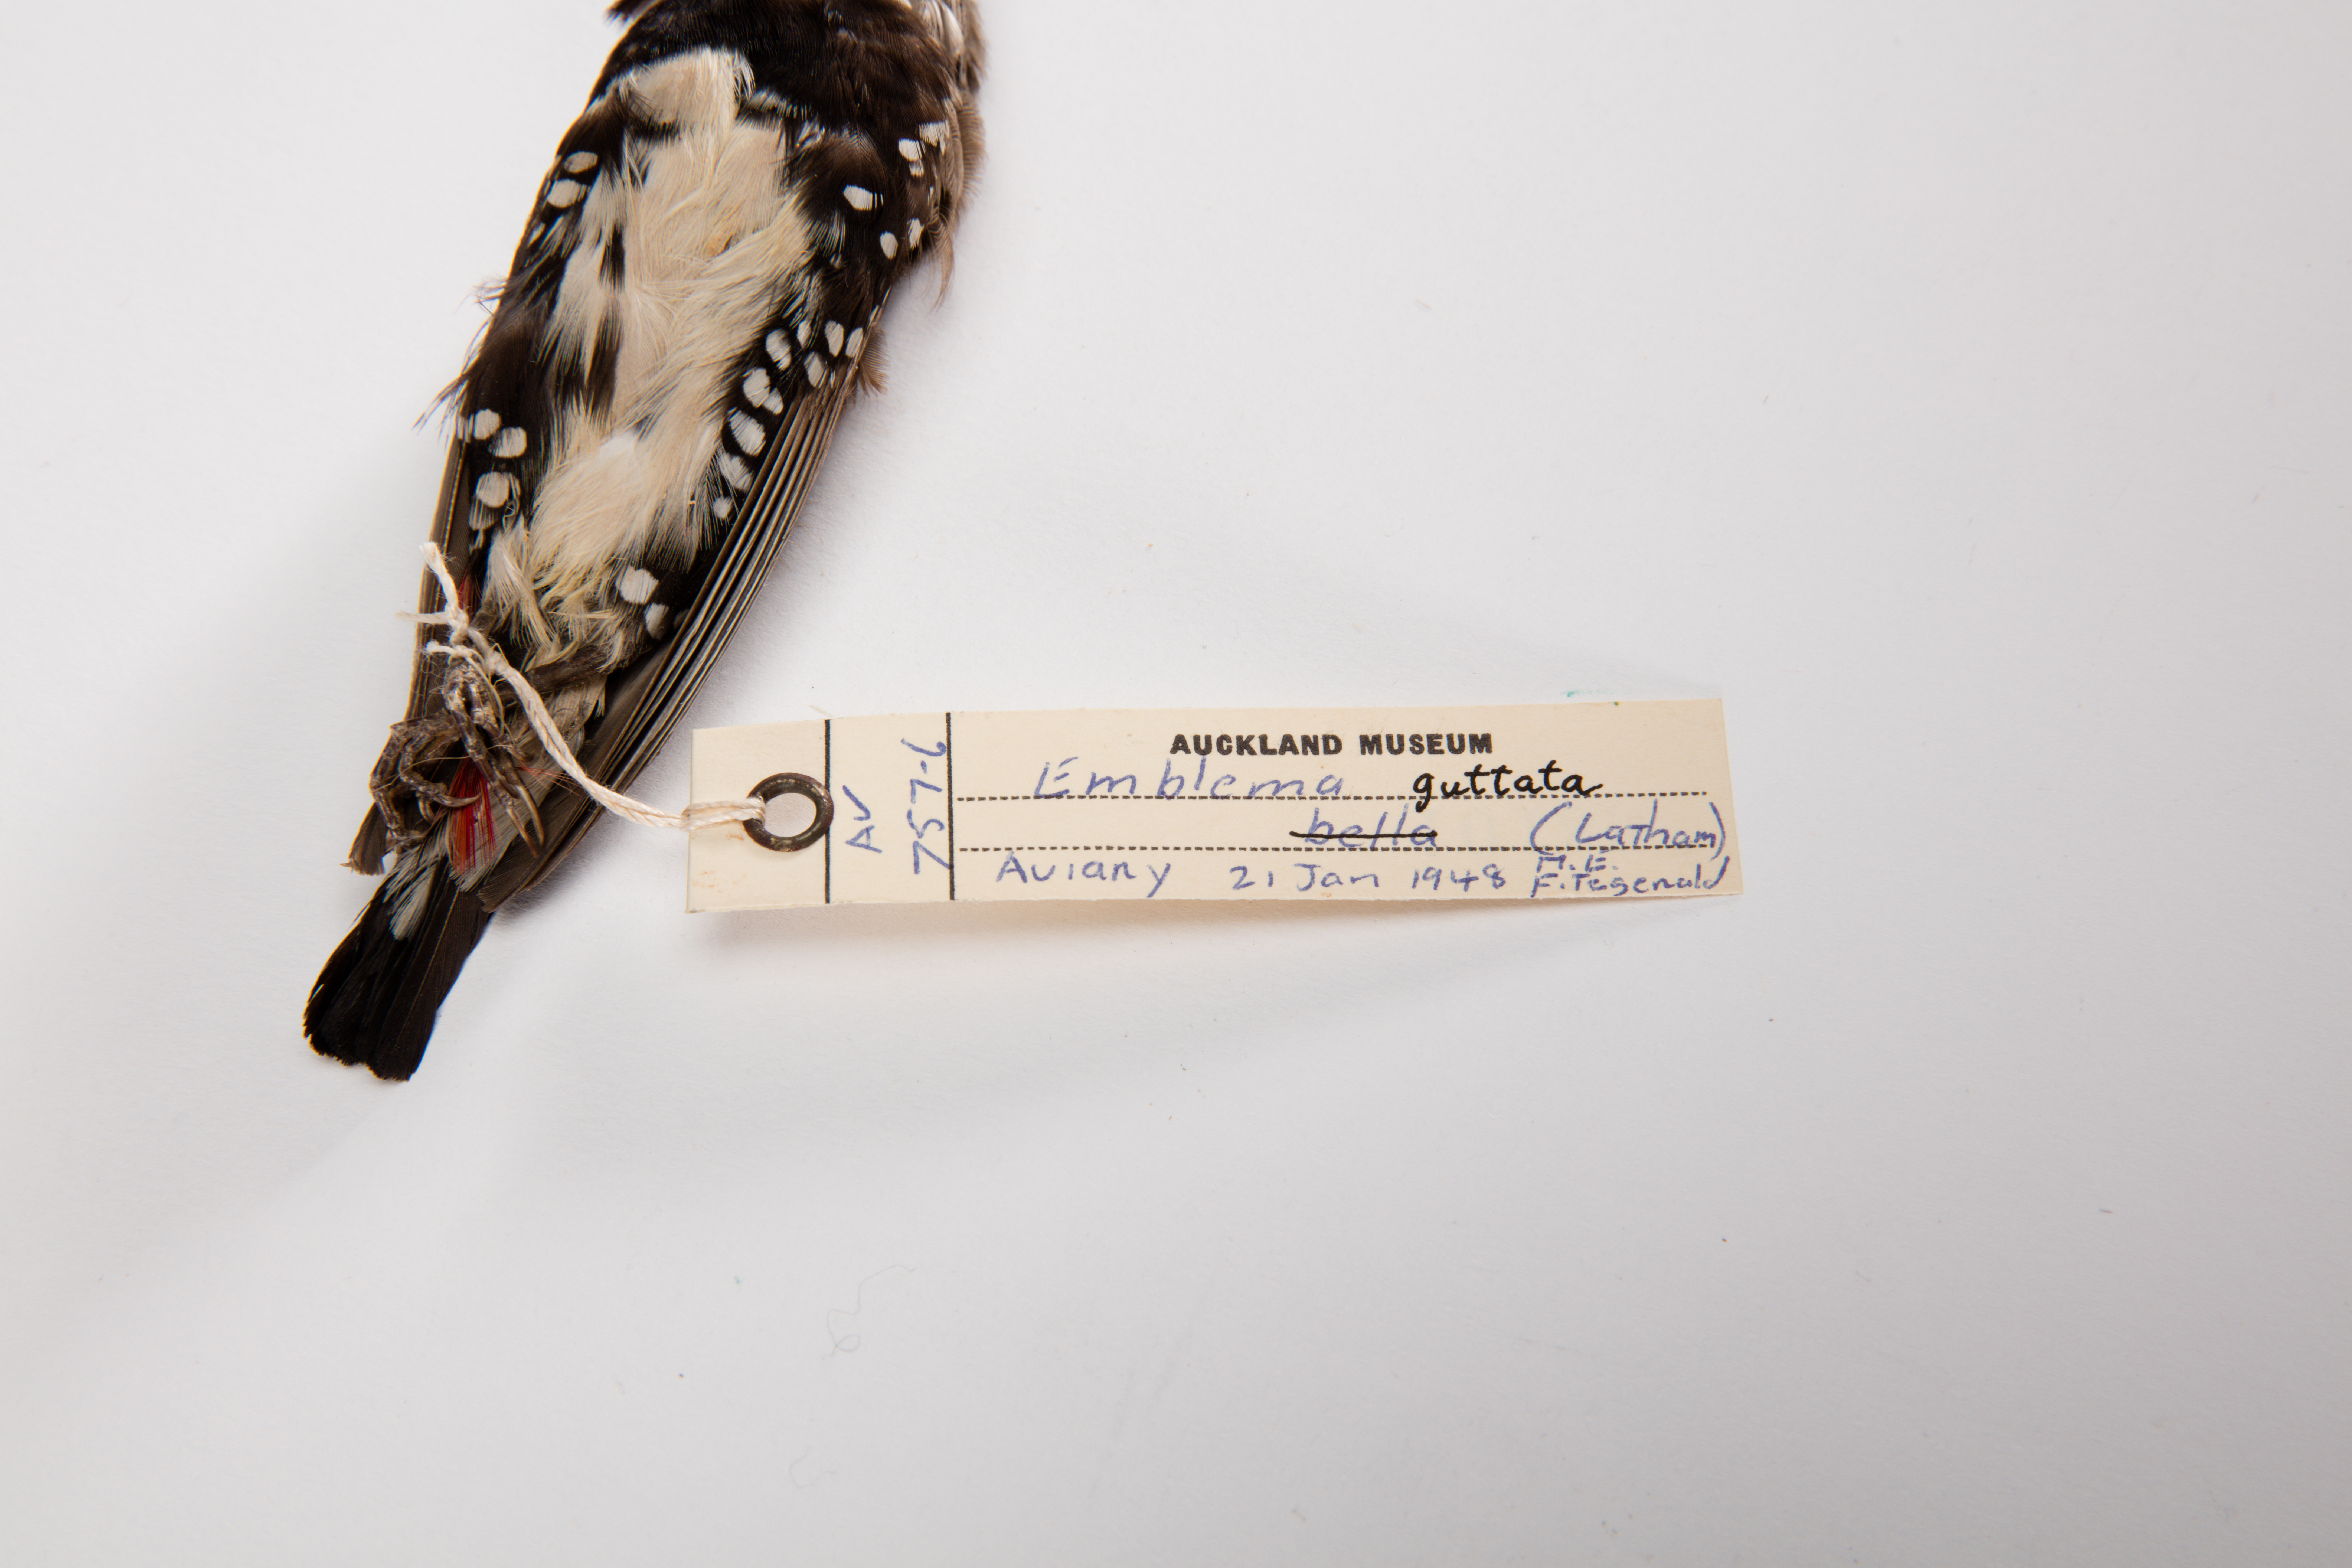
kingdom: Animalia
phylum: Chordata
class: Aves
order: Passeriformes
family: Estrildidae
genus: Stagonopleura
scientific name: Stagonopleura guttata
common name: Diamond firetail
